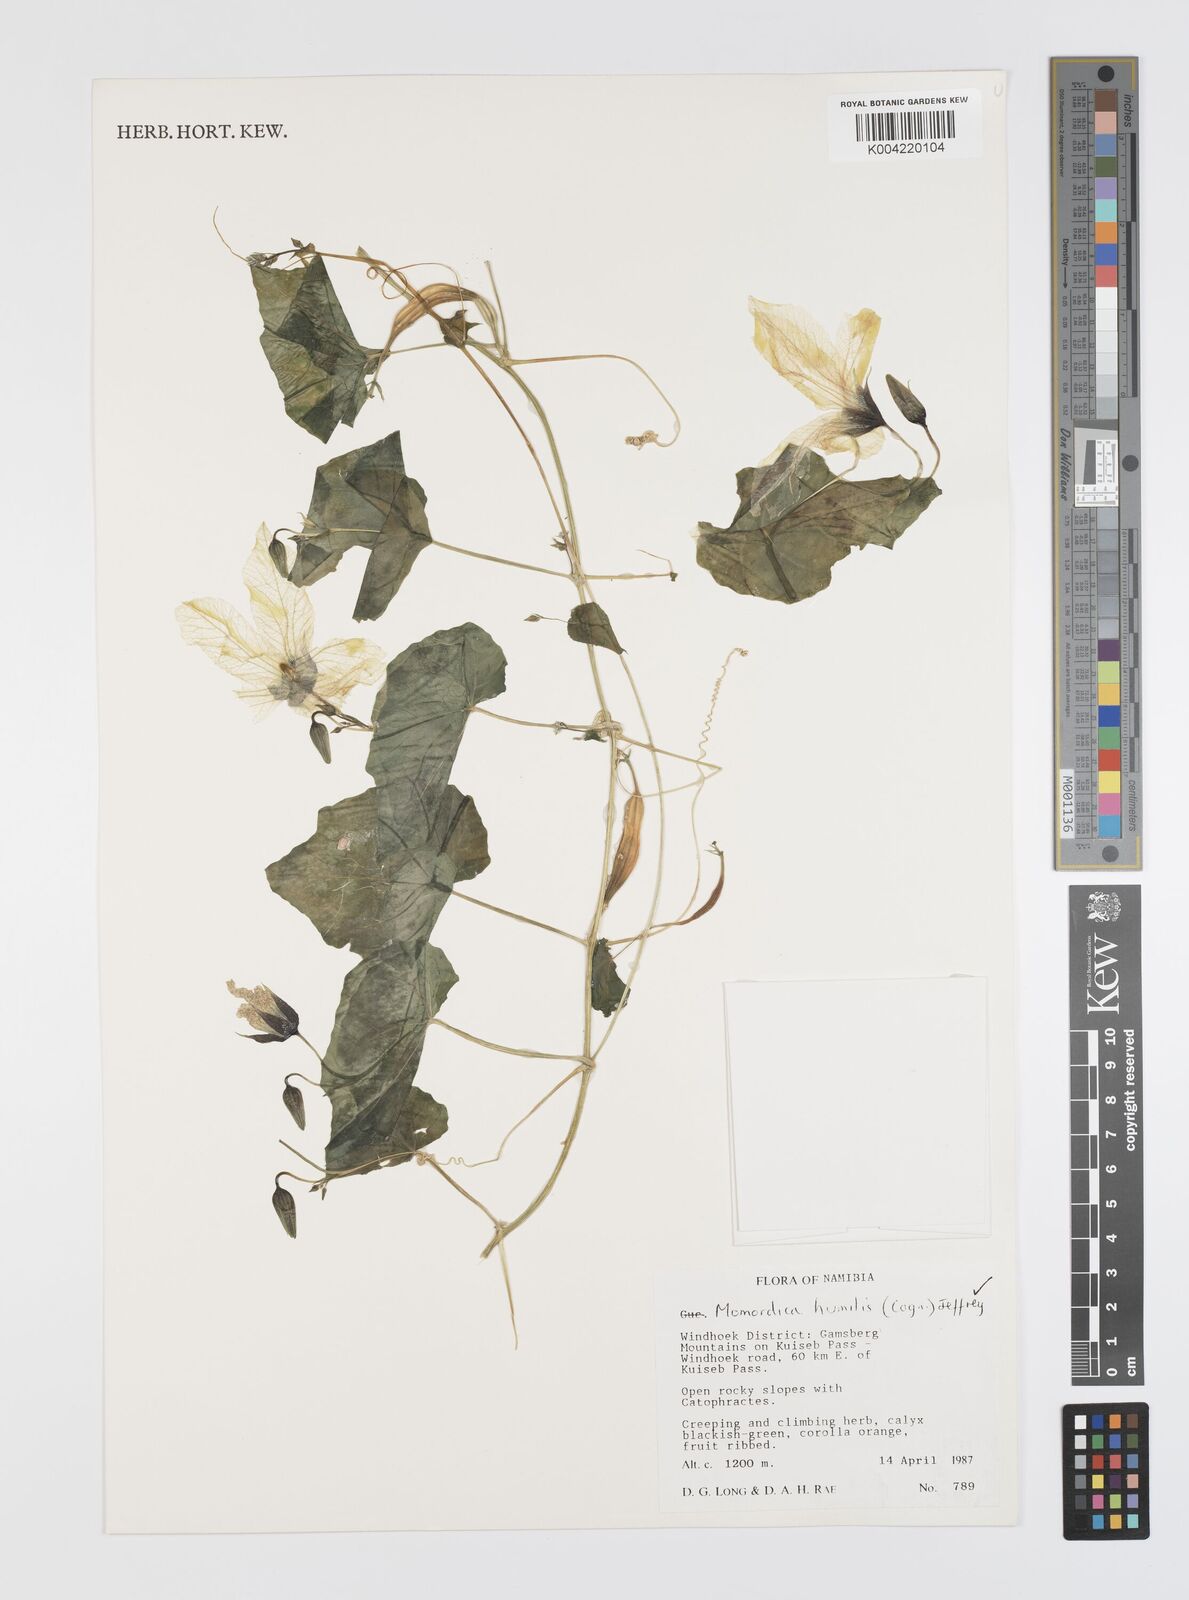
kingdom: Plantae
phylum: Tracheophyta
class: Magnoliopsida
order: Cucurbitales
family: Cucurbitaceae
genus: Momordica
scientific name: Momordica
